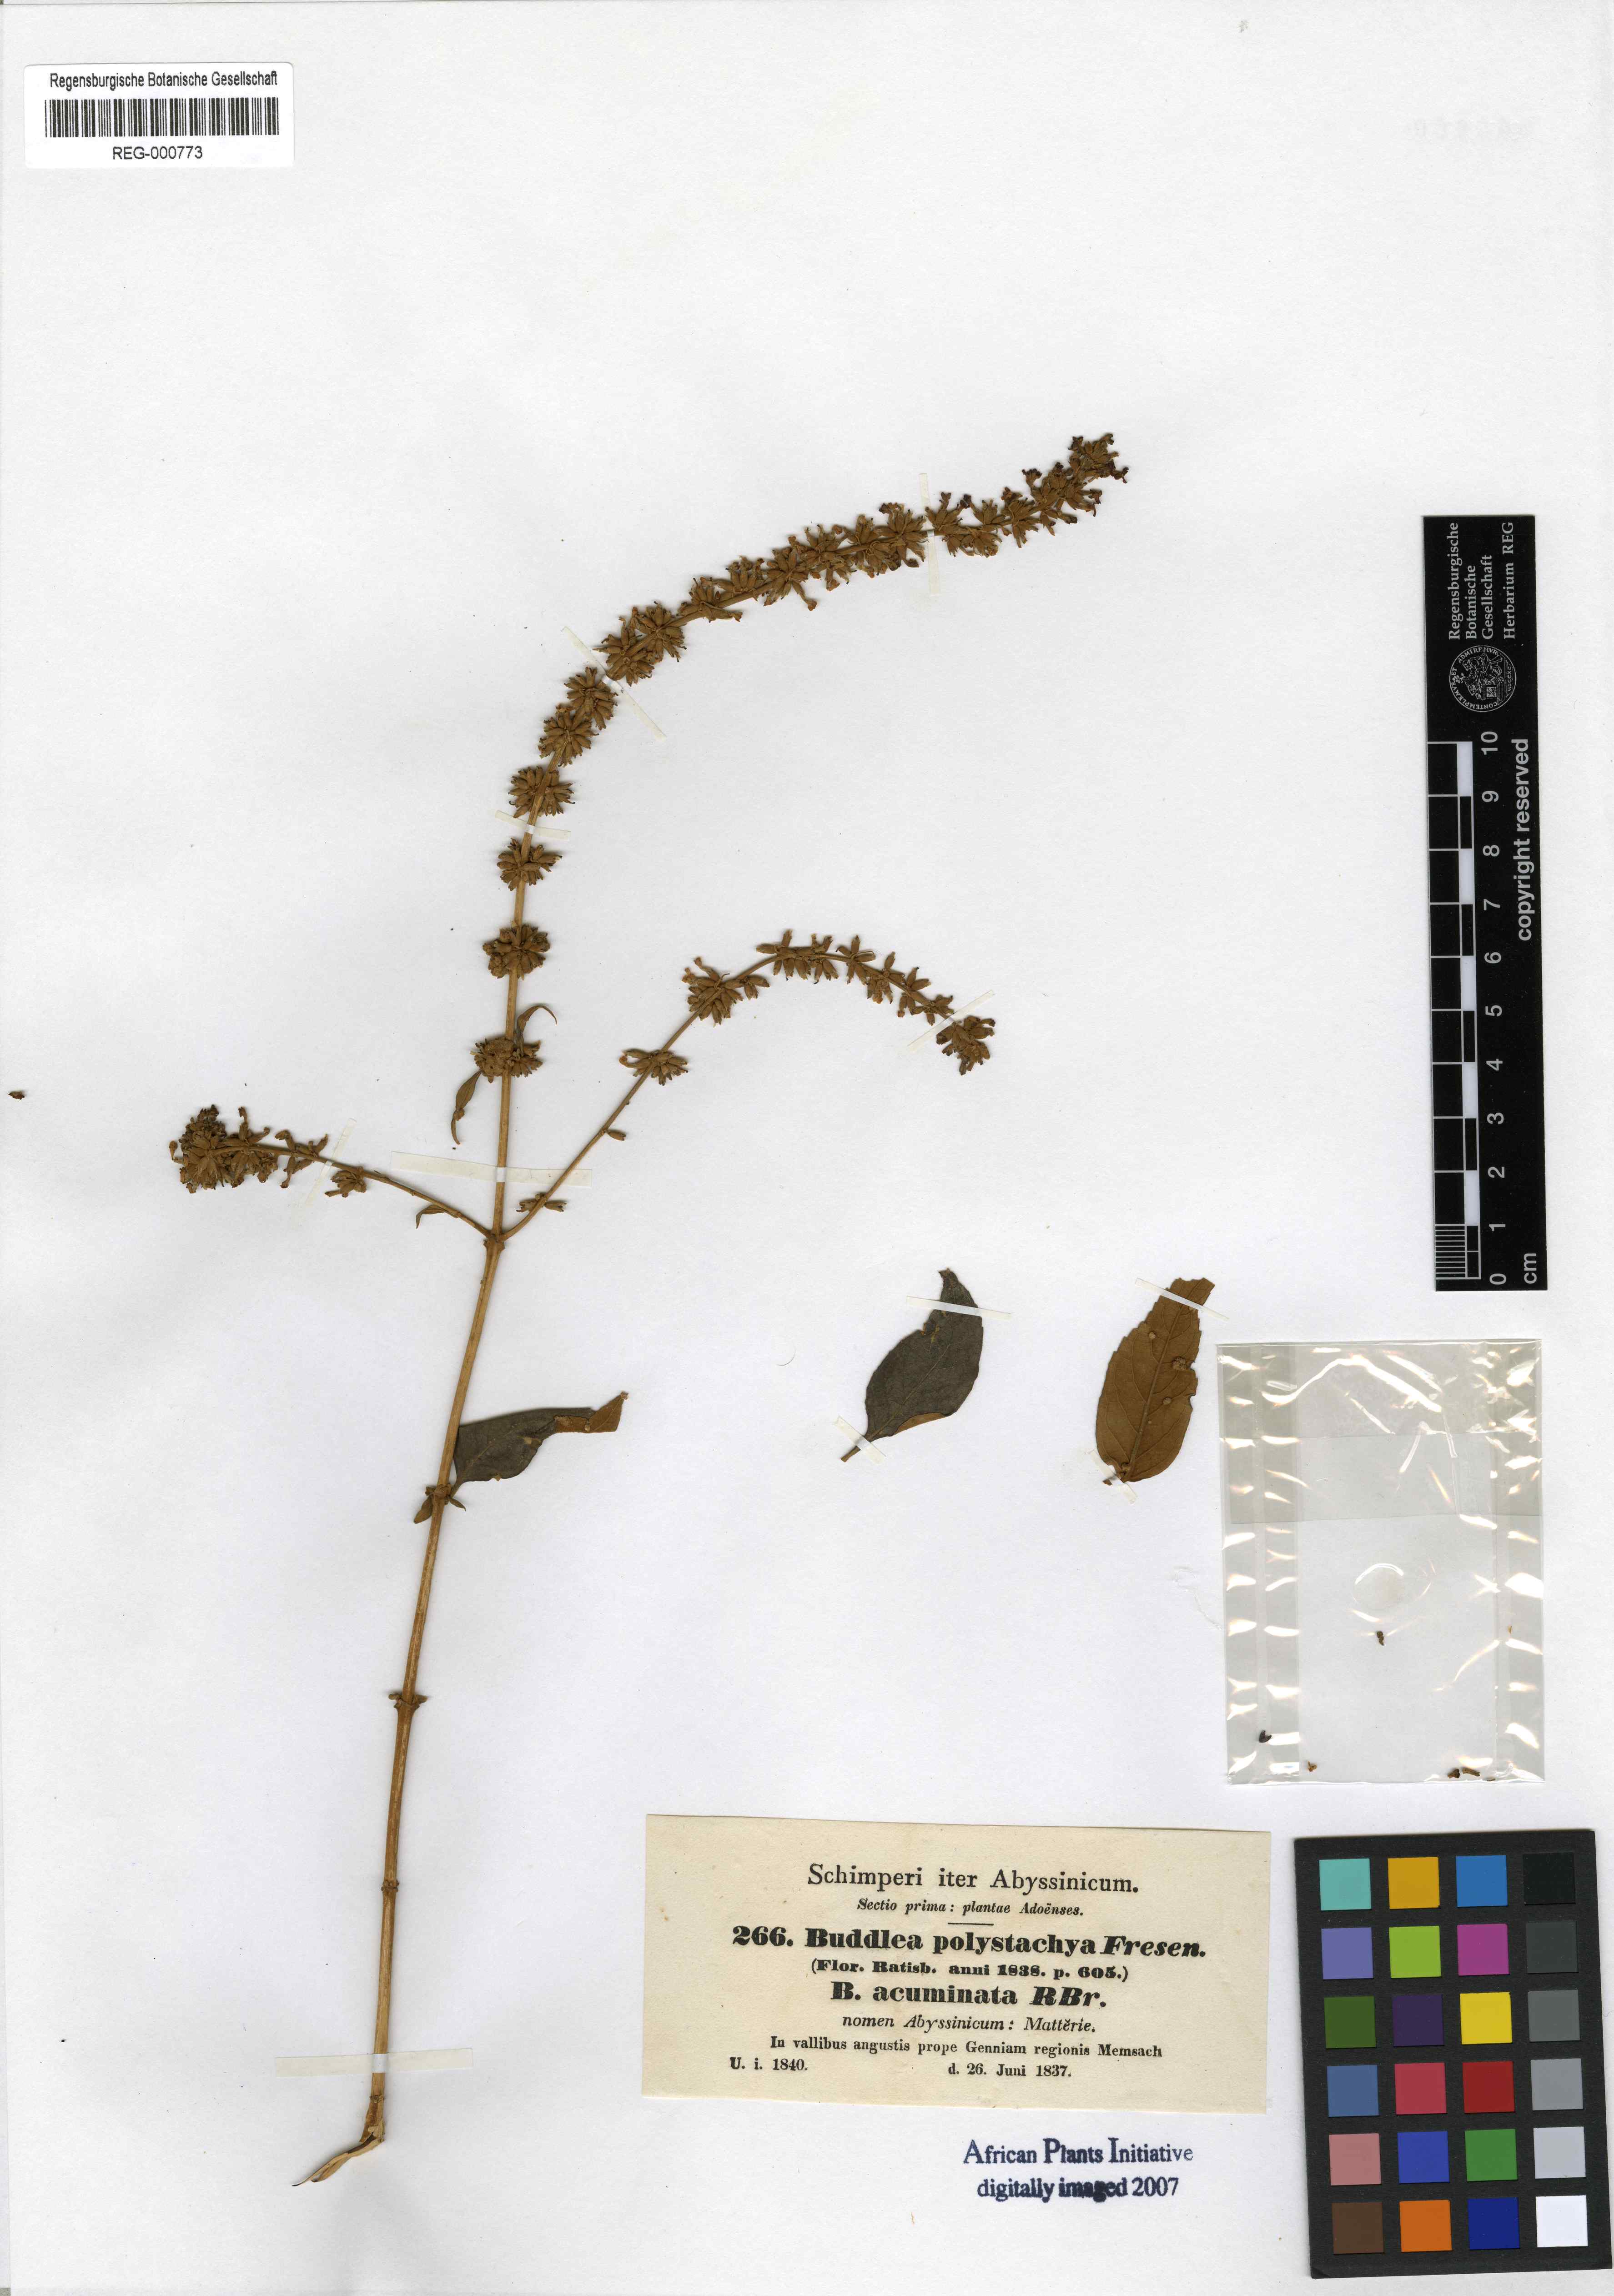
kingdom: Plantae
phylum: Tracheophyta
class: Magnoliopsida
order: Lamiales
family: Scrophulariaceae
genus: Buddleja
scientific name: Buddleja polystachya
